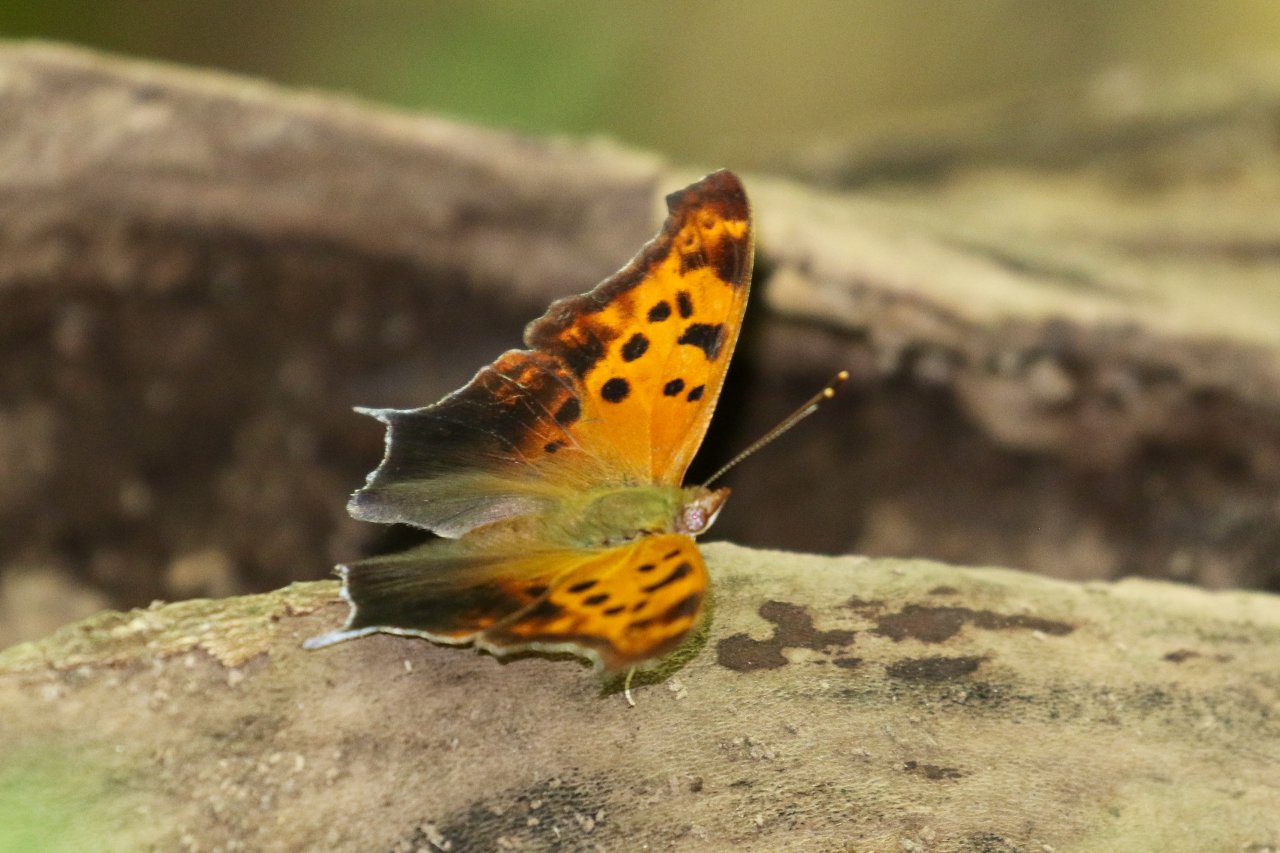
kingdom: Animalia
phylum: Arthropoda
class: Insecta
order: Lepidoptera
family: Nymphalidae
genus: Polygonia
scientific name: Polygonia interrogationis
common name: Question Mark
